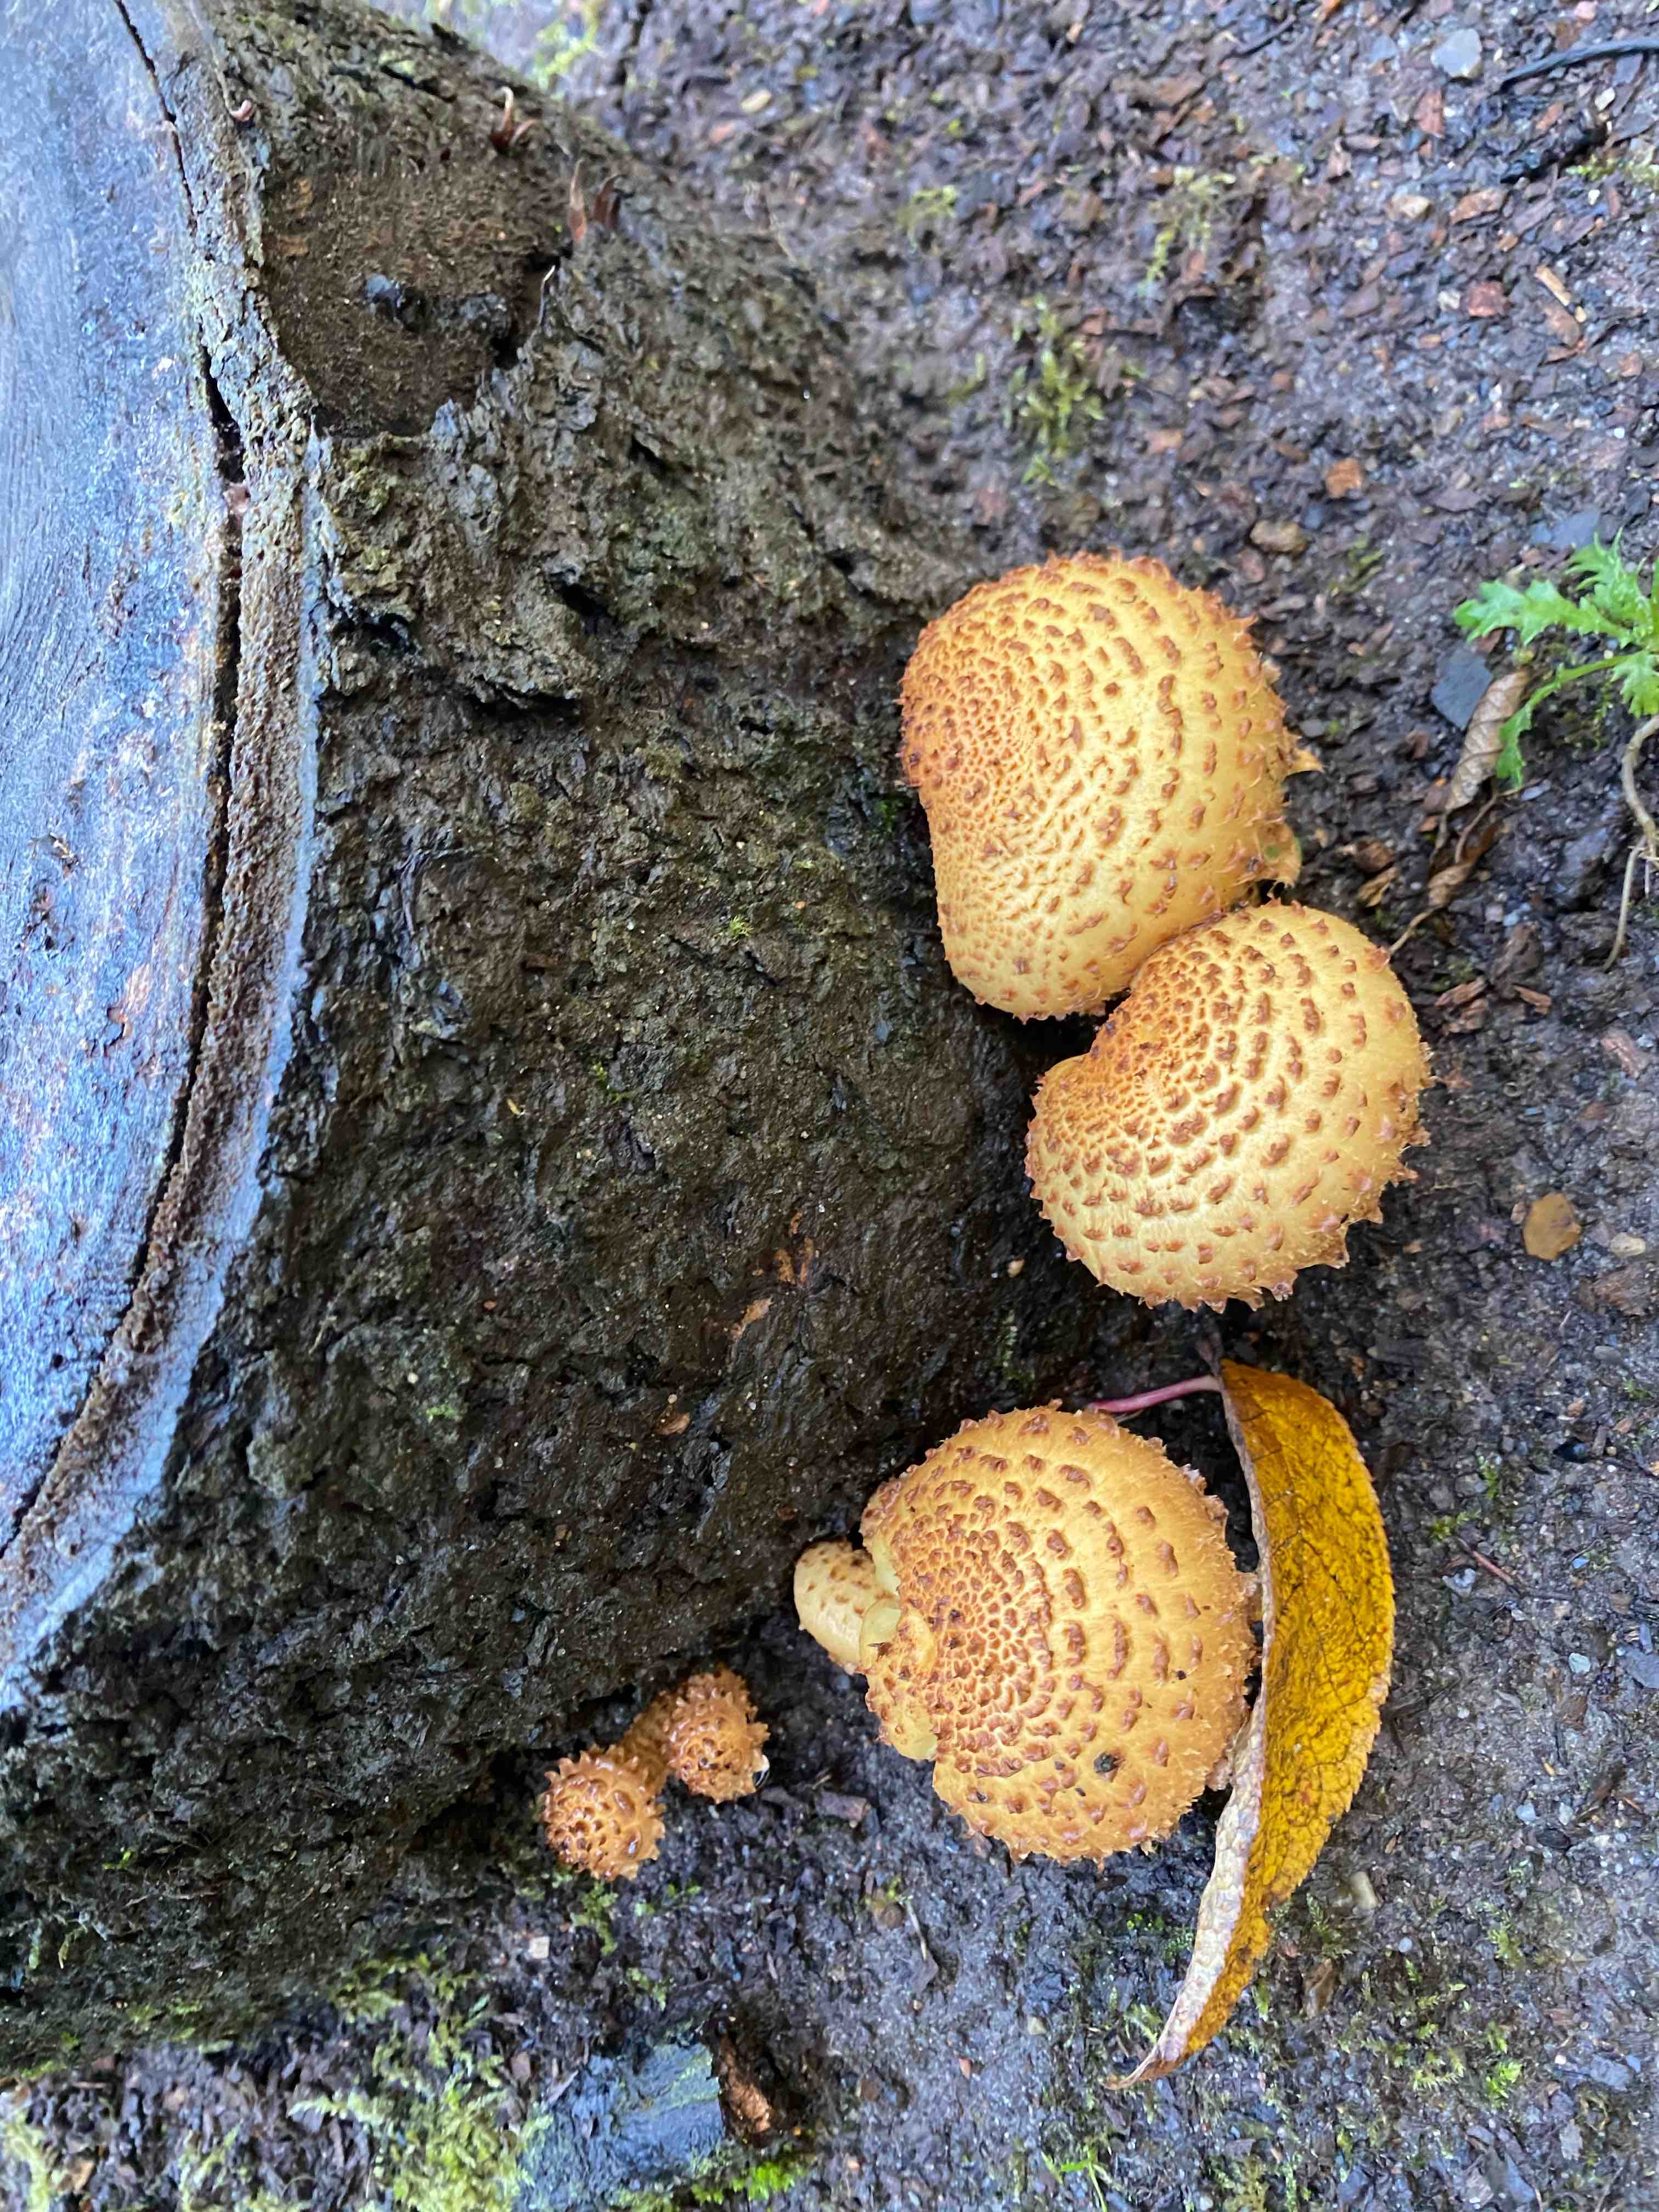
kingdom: Fungi
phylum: Basidiomycota
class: Agaricomycetes
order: Agaricales
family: Strophariaceae
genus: Pholiota
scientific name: Pholiota squarrosa
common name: krumskællet skælhat
